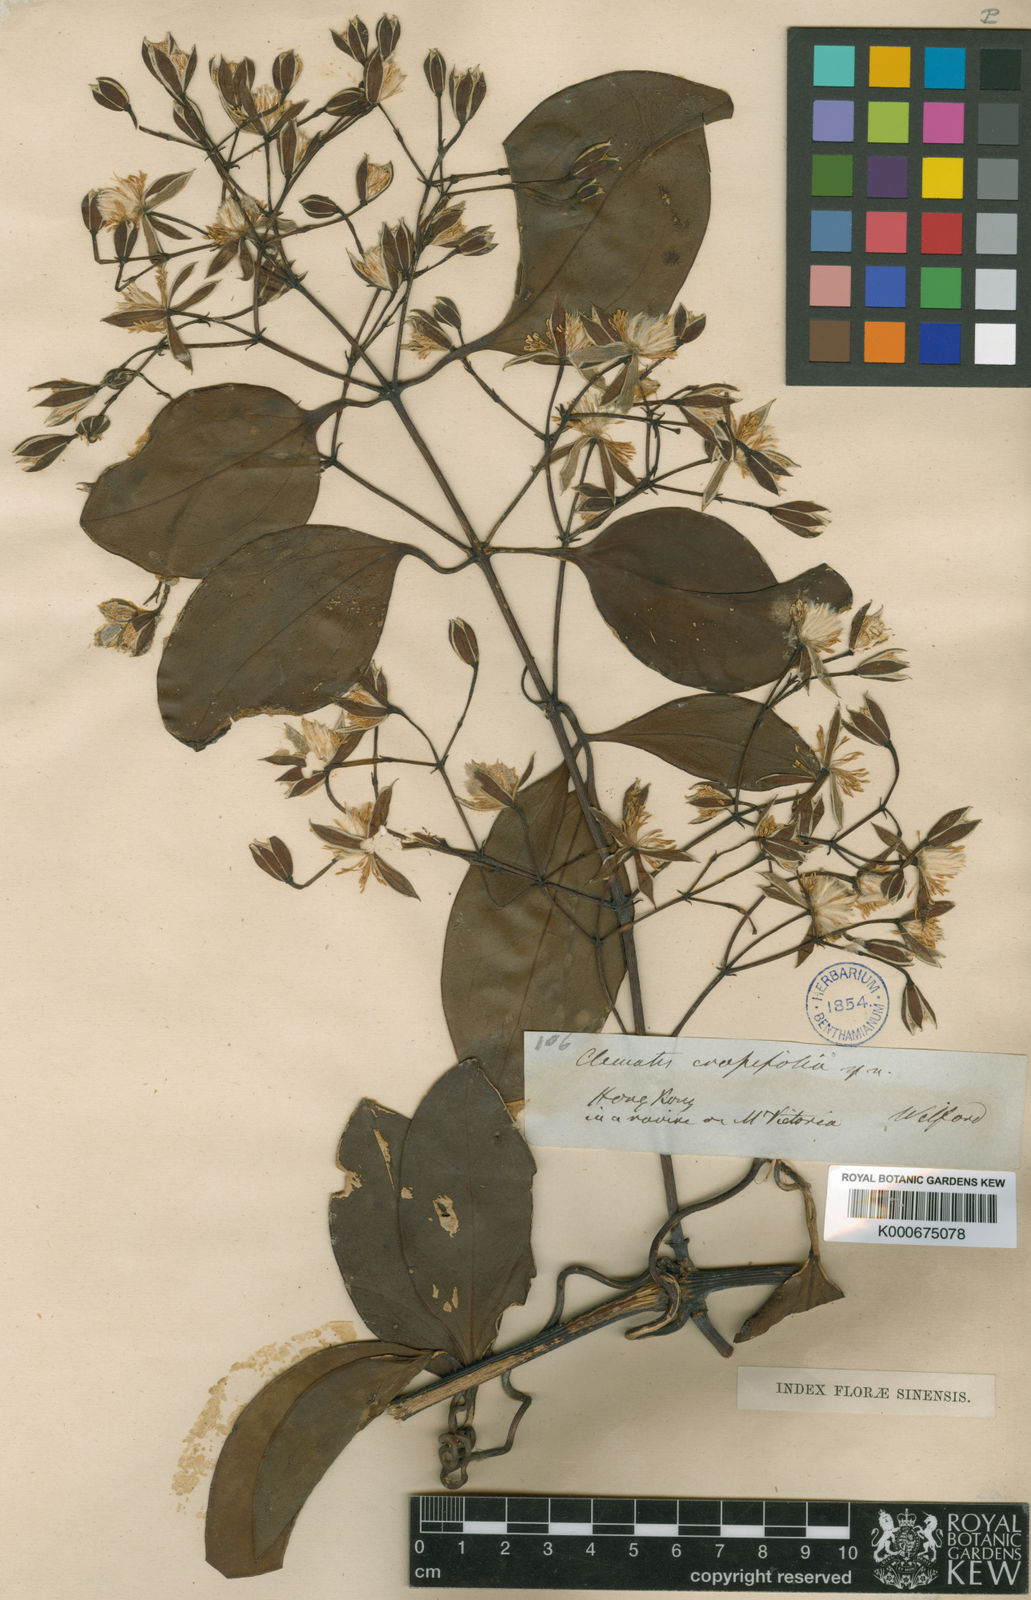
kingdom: Plantae
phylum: Tracheophyta
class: Magnoliopsida
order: Ranunculales
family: Ranunculaceae
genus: Clematis
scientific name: Clematis crassifolia
